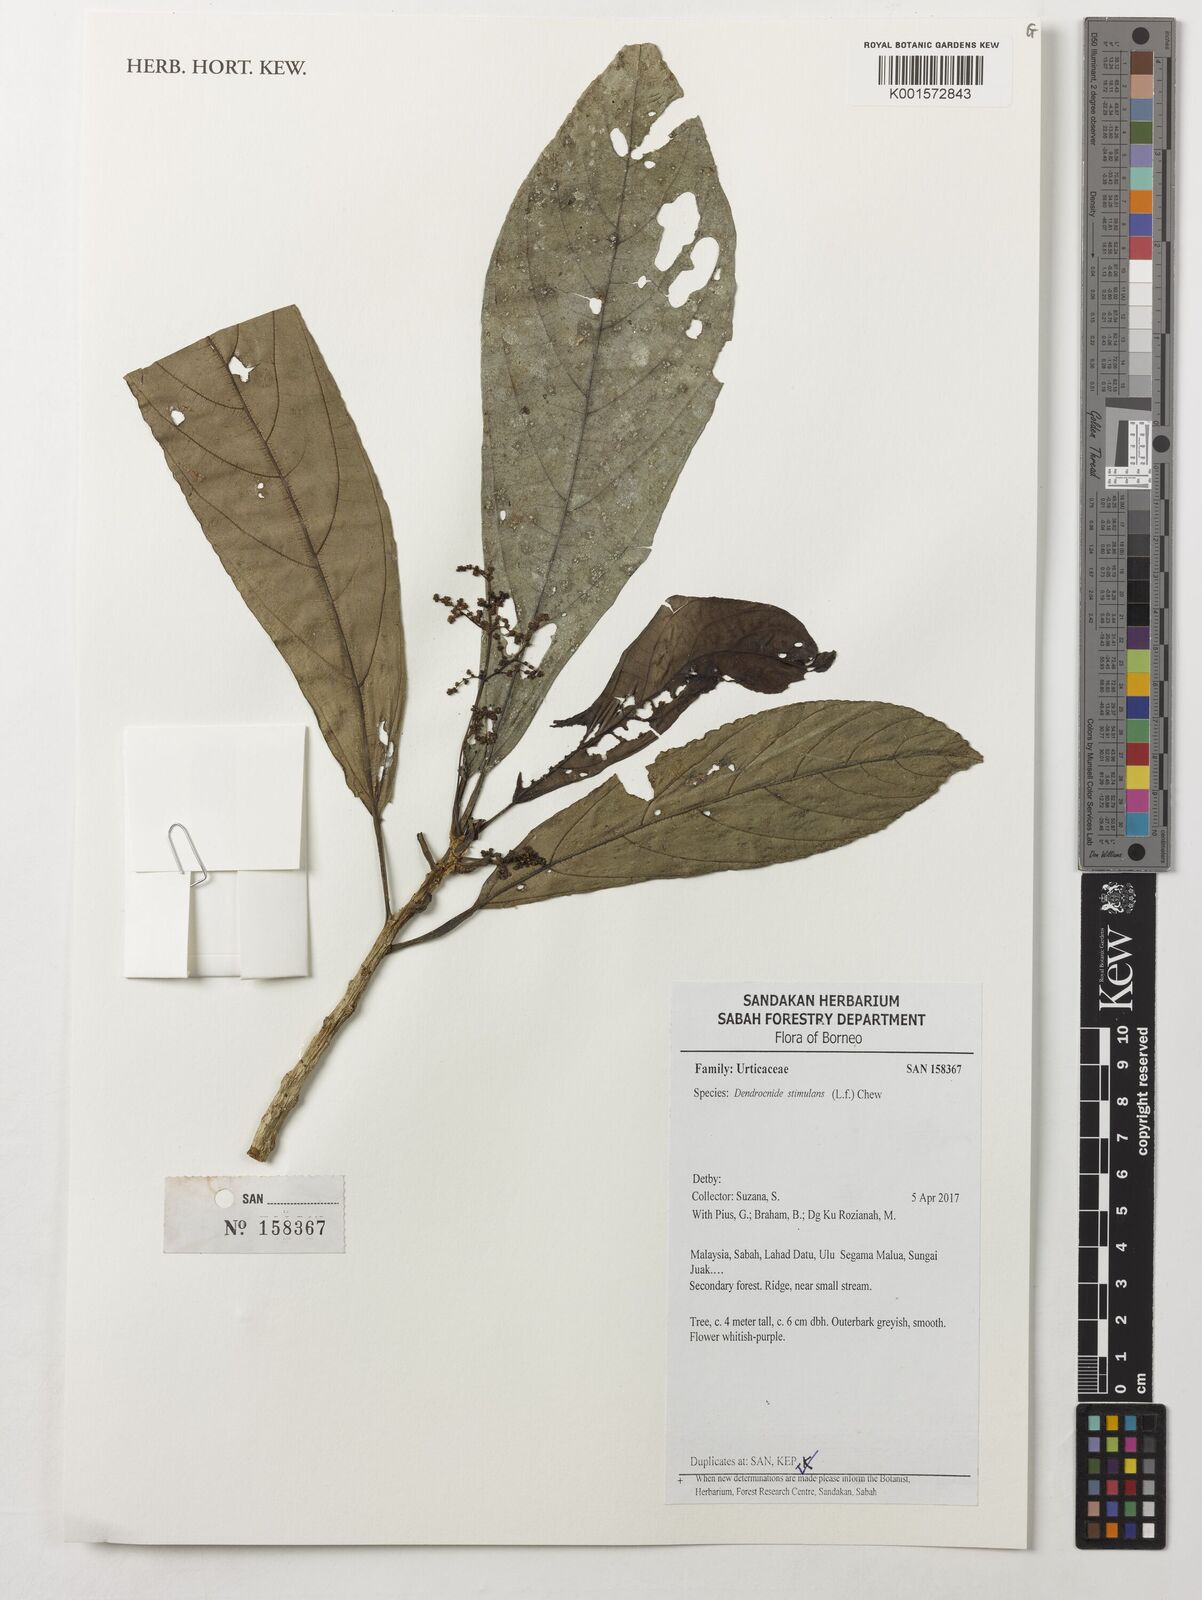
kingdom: Plantae
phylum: Tracheophyta
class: Magnoliopsida
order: Rosales
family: Urticaceae
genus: Dendrocnide
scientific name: Dendrocnide stimulans
